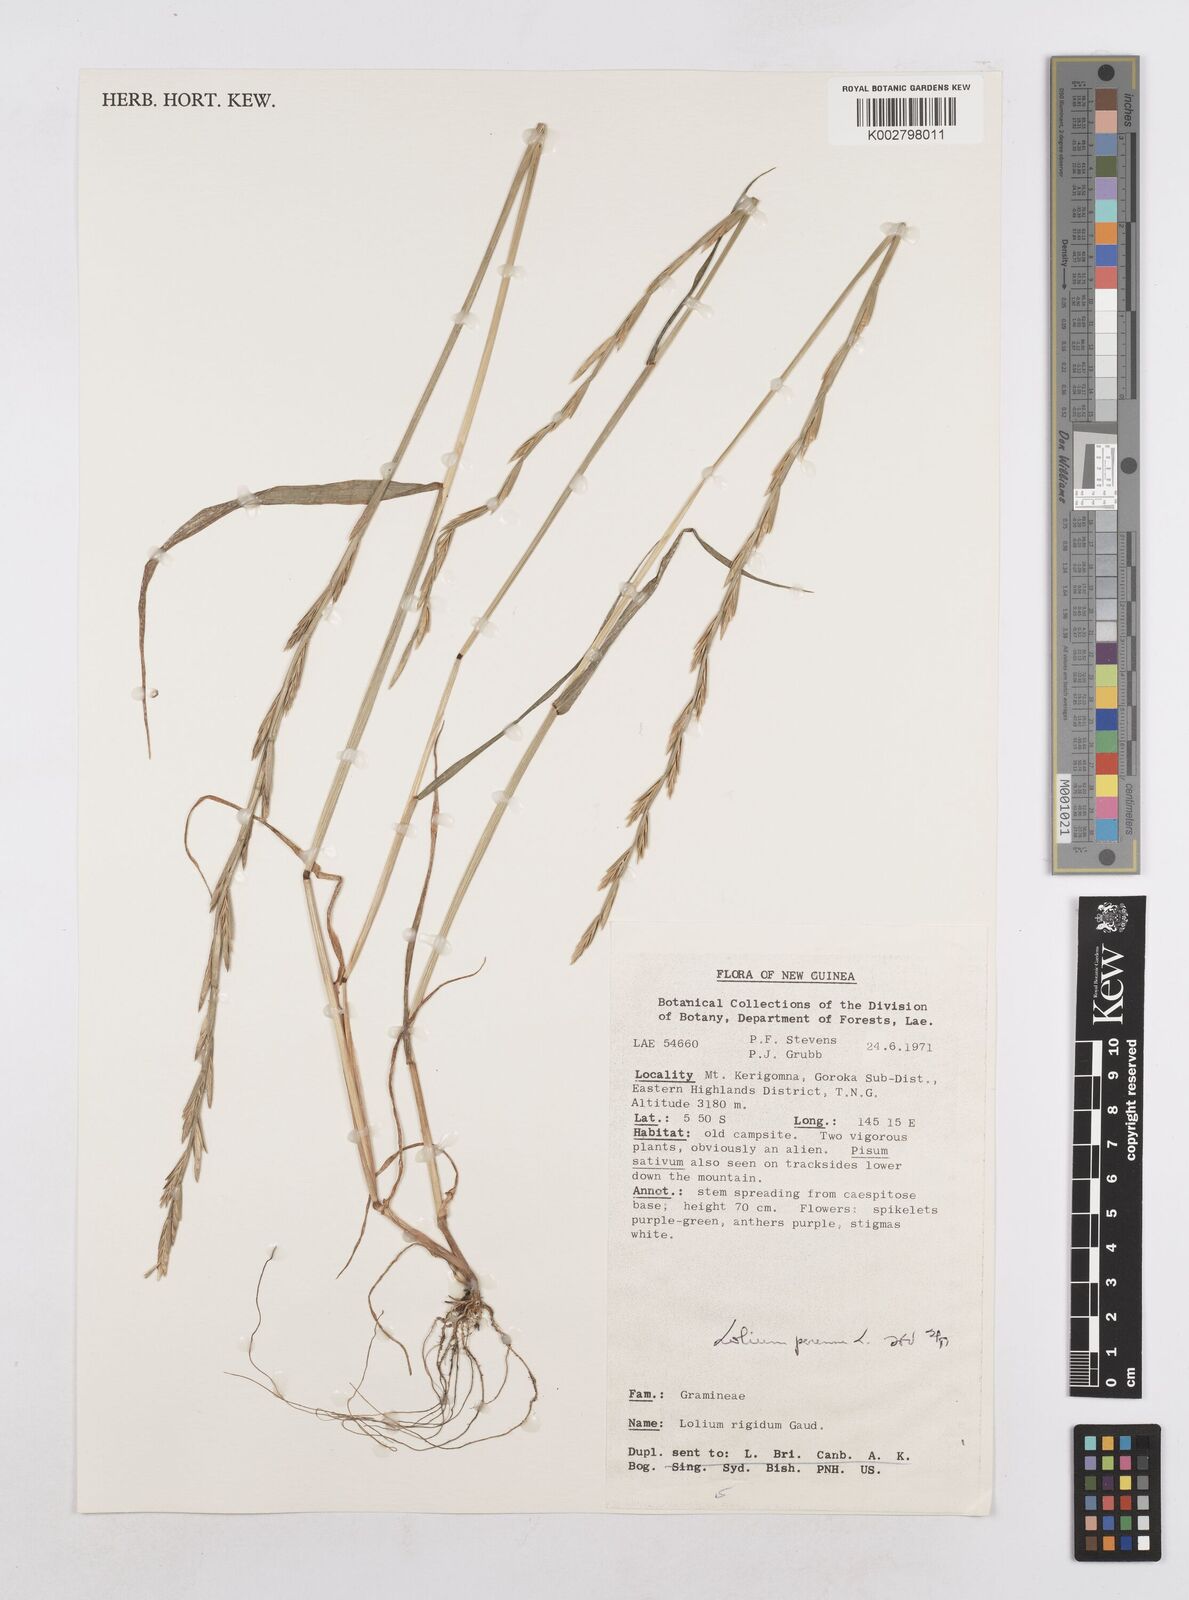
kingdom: Plantae
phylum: Tracheophyta
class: Liliopsida
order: Poales
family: Poaceae
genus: Lolium
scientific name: Lolium perenne
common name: Perennial ryegrass
